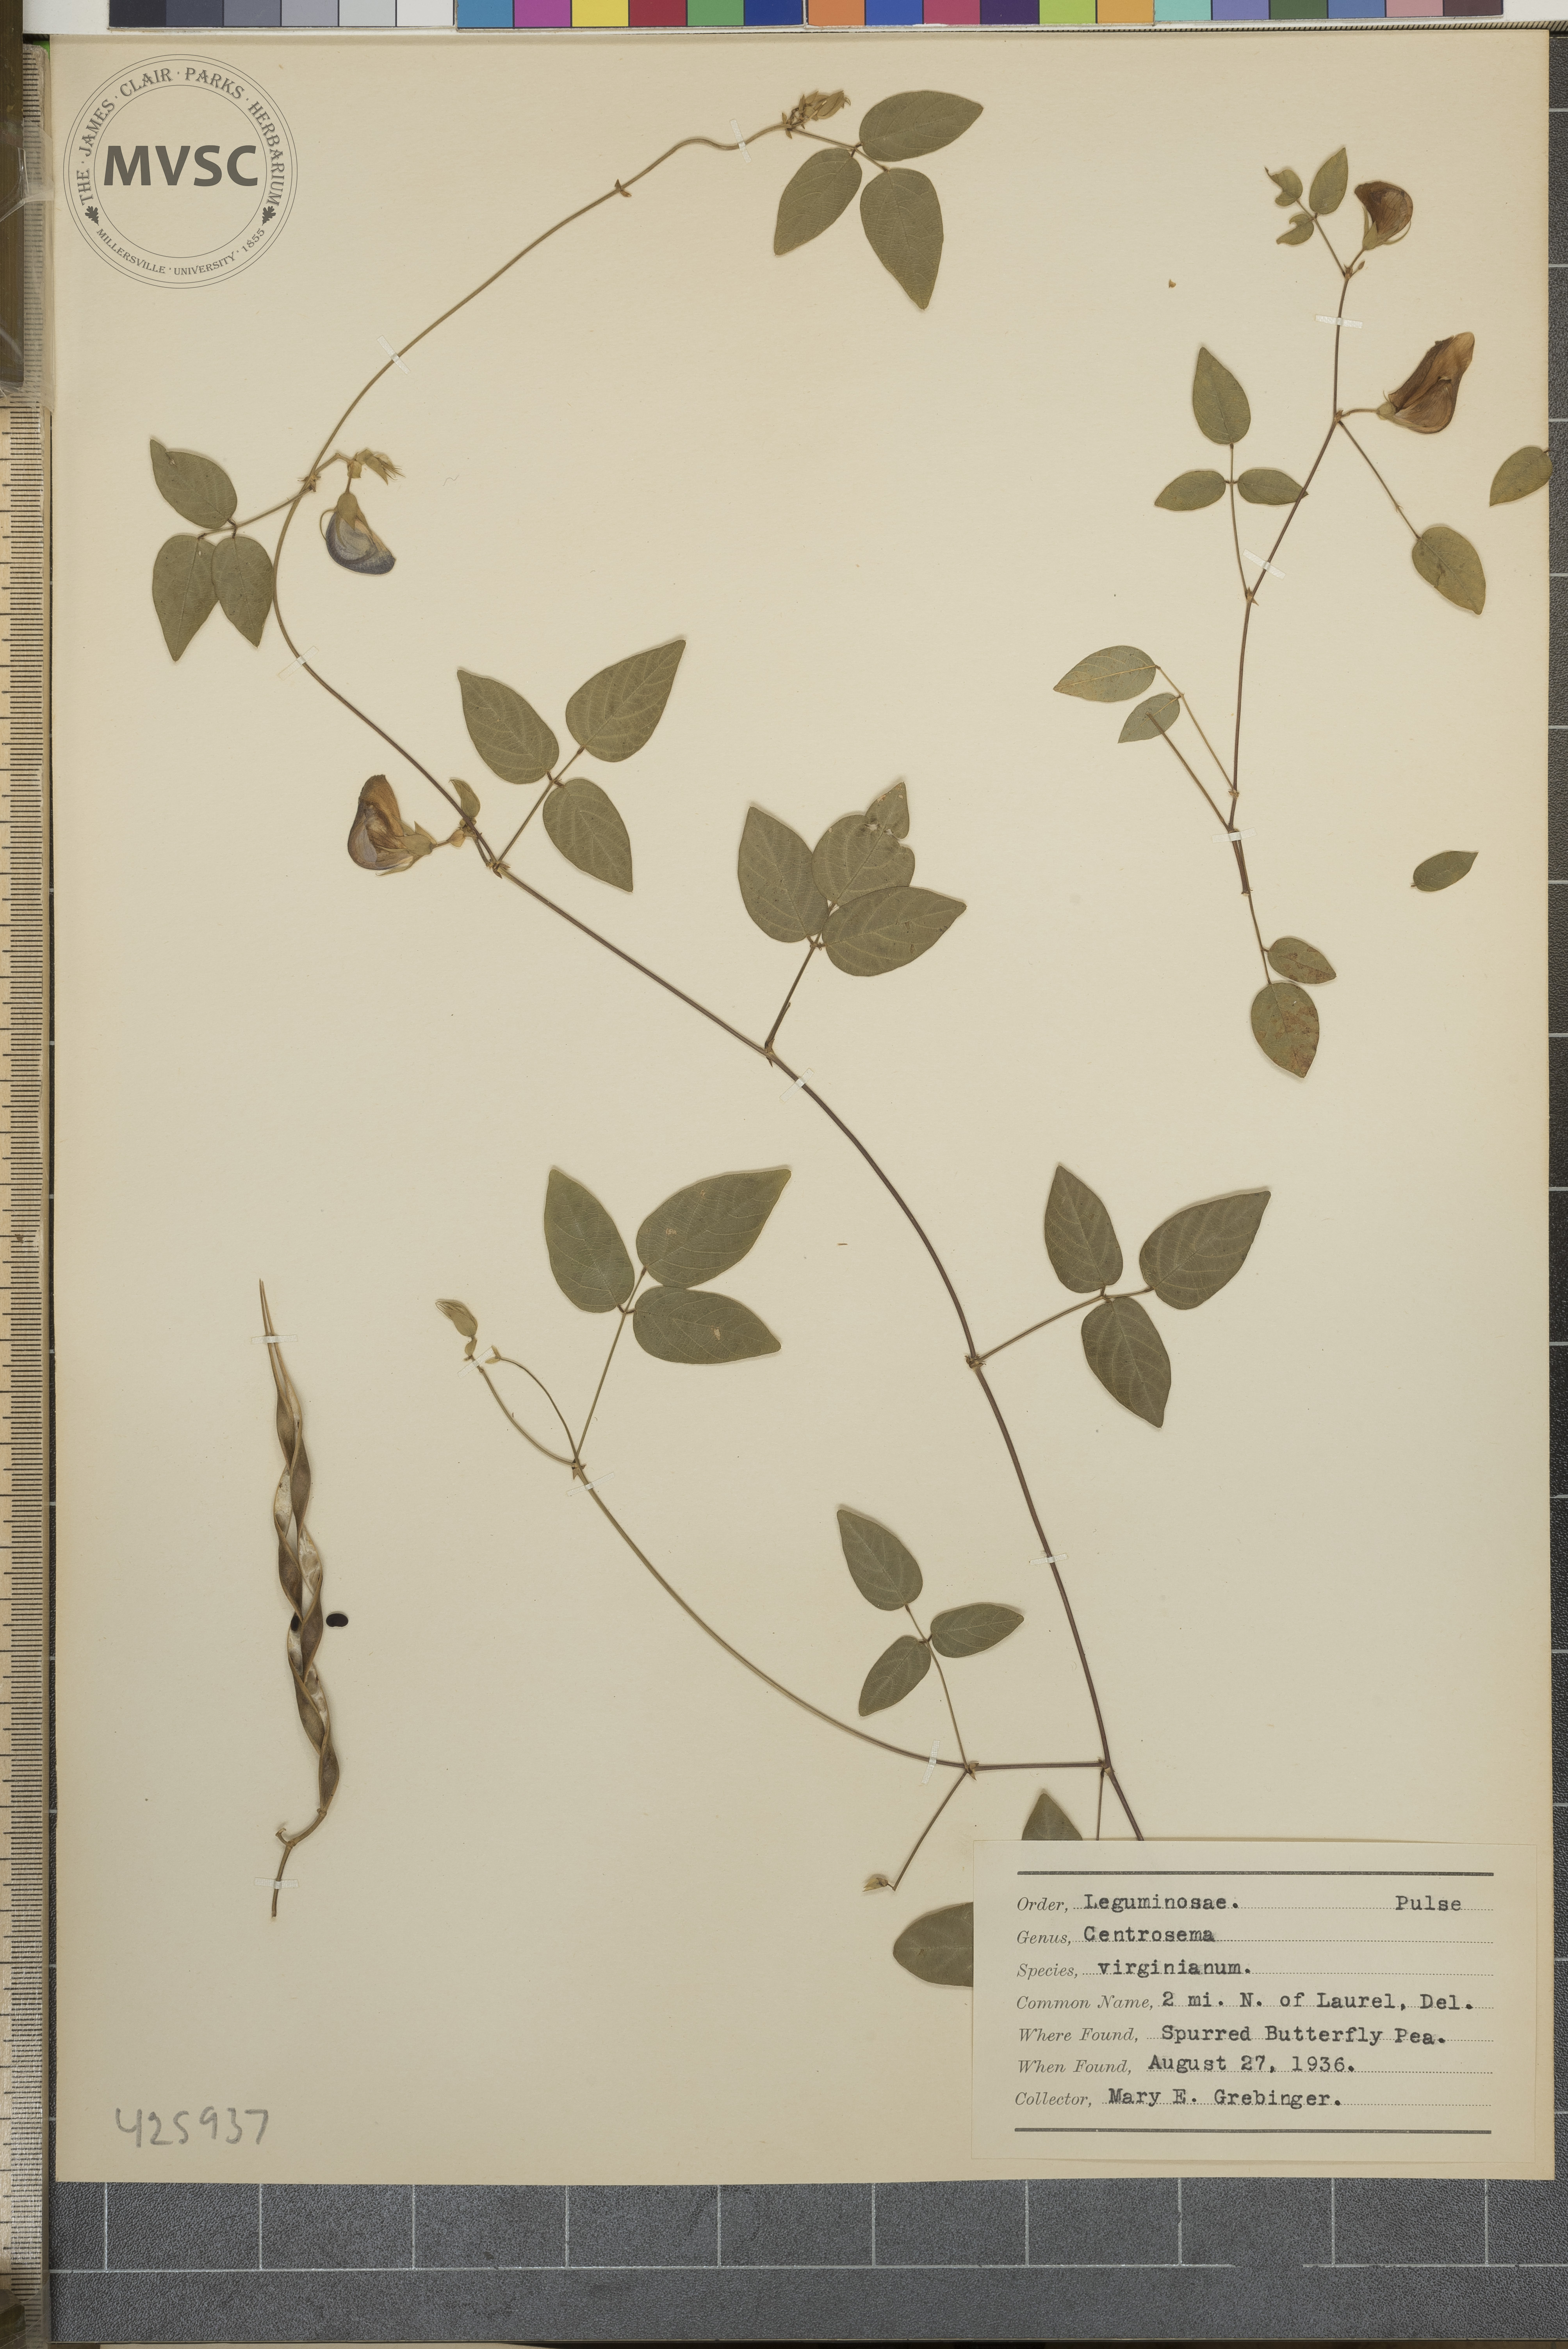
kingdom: Plantae
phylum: Tracheophyta
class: Magnoliopsida
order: Fabales
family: Fabaceae
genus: Centrosema
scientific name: Centrosema virginianum
